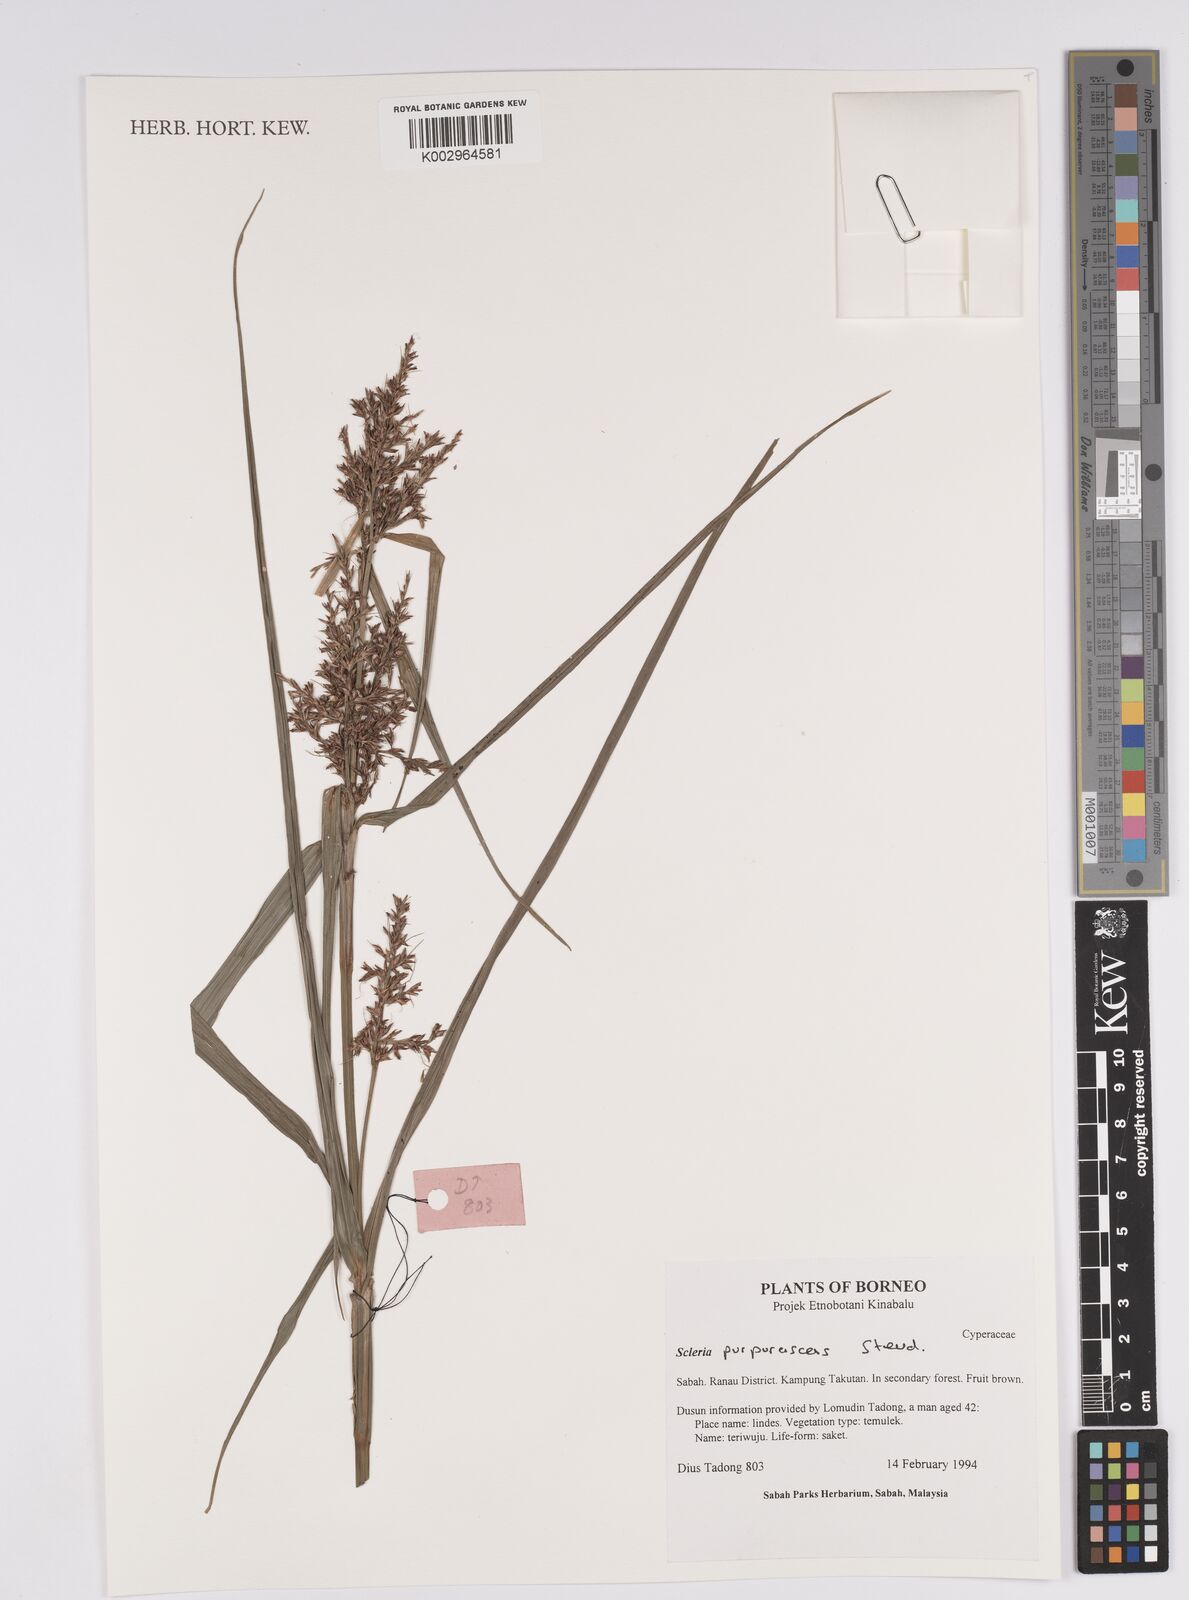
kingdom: Plantae
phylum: Tracheophyta
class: Liliopsida
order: Poales
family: Cyperaceae
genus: Scleria
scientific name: Scleria purpurascens
